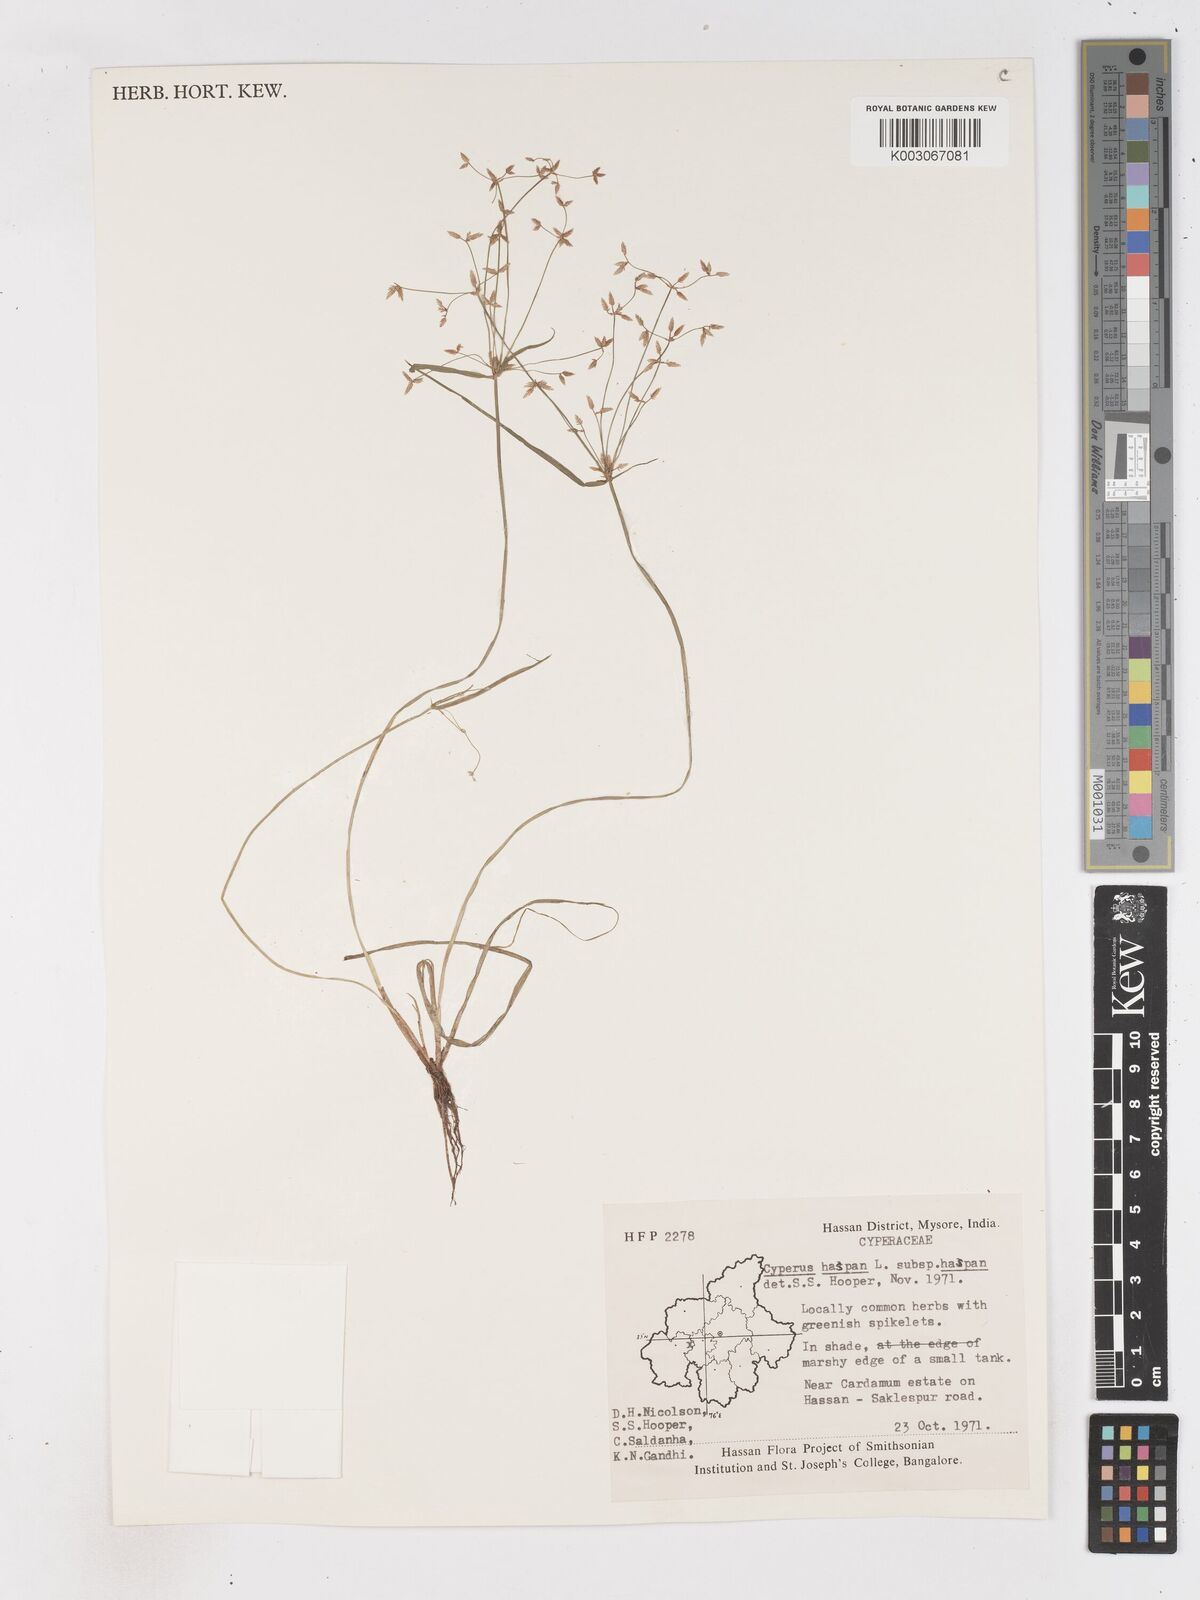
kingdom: Plantae
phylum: Tracheophyta
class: Liliopsida
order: Poales
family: Cyperaceae
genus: Cyperus
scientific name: Cyperus haspan
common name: Haspan flatsedge
